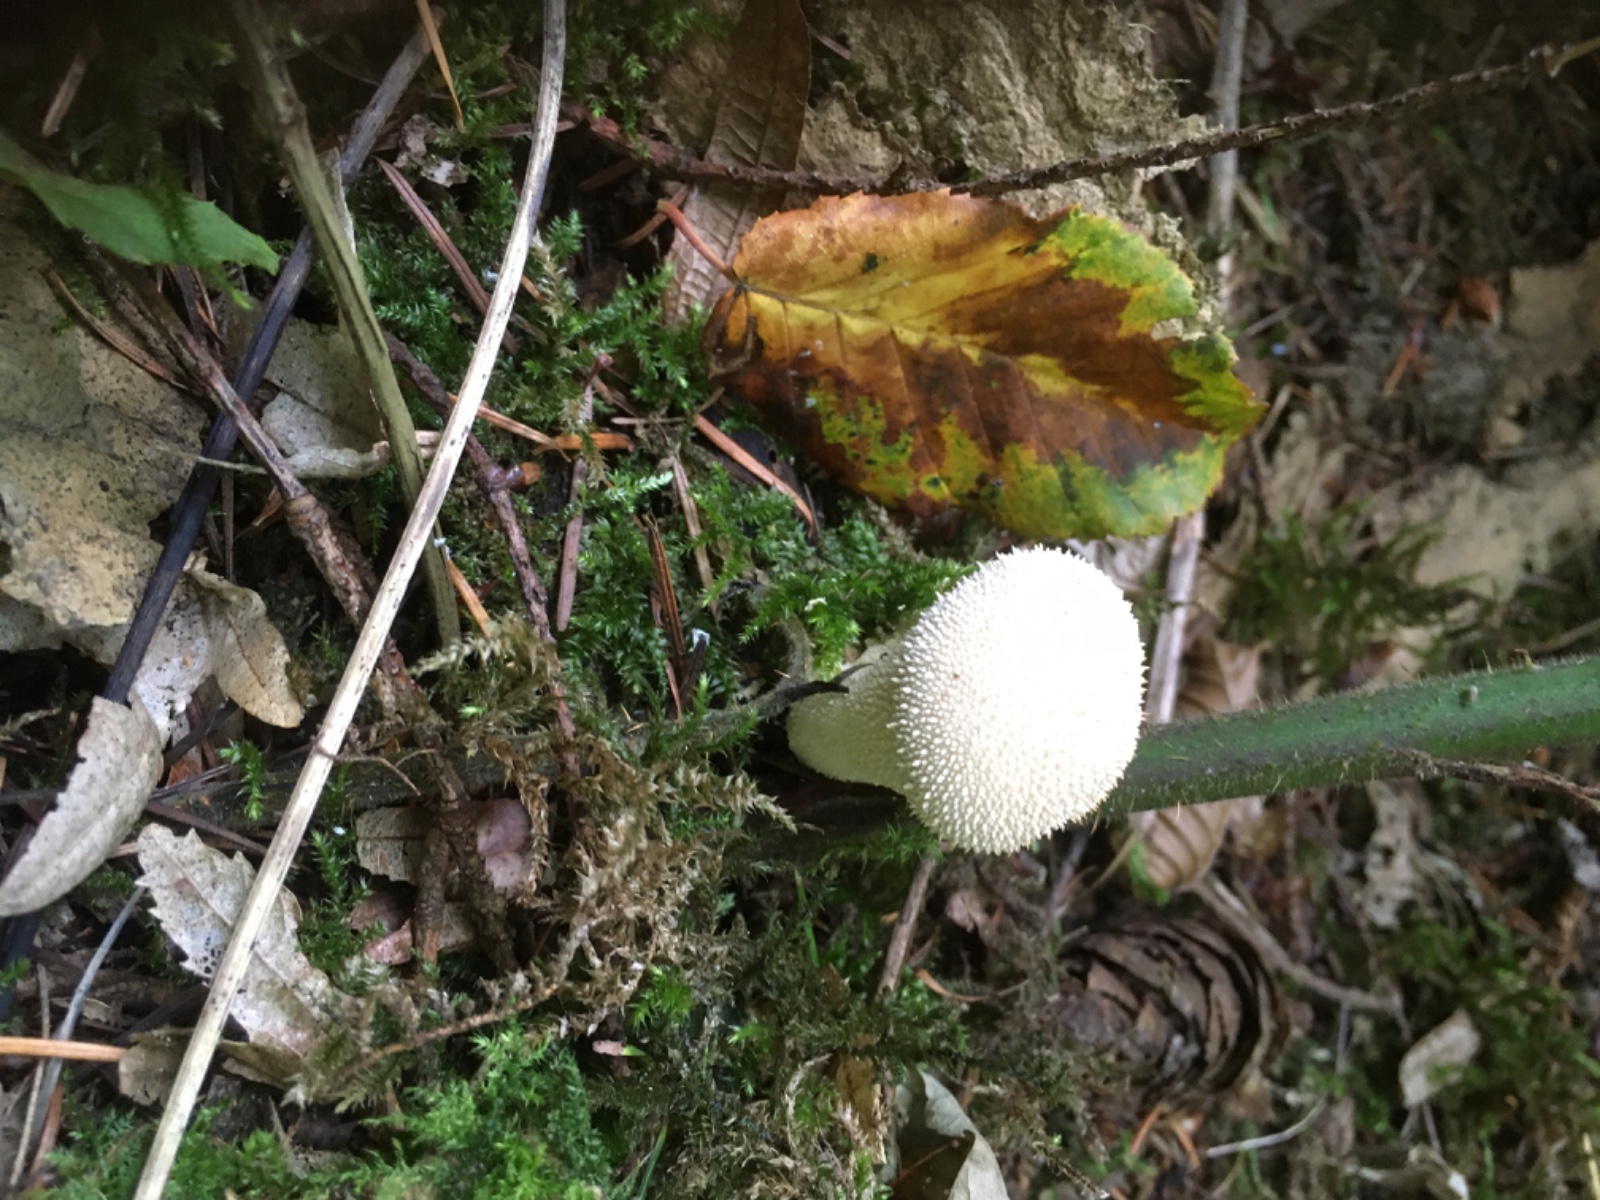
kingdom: Fungi
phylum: Basidiomycota
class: Agaricomycetes
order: Agaricales
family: Lycoperdaceae
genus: Lycoperdon
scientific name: Lycoperdon perlatum
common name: krystal-støvbold
